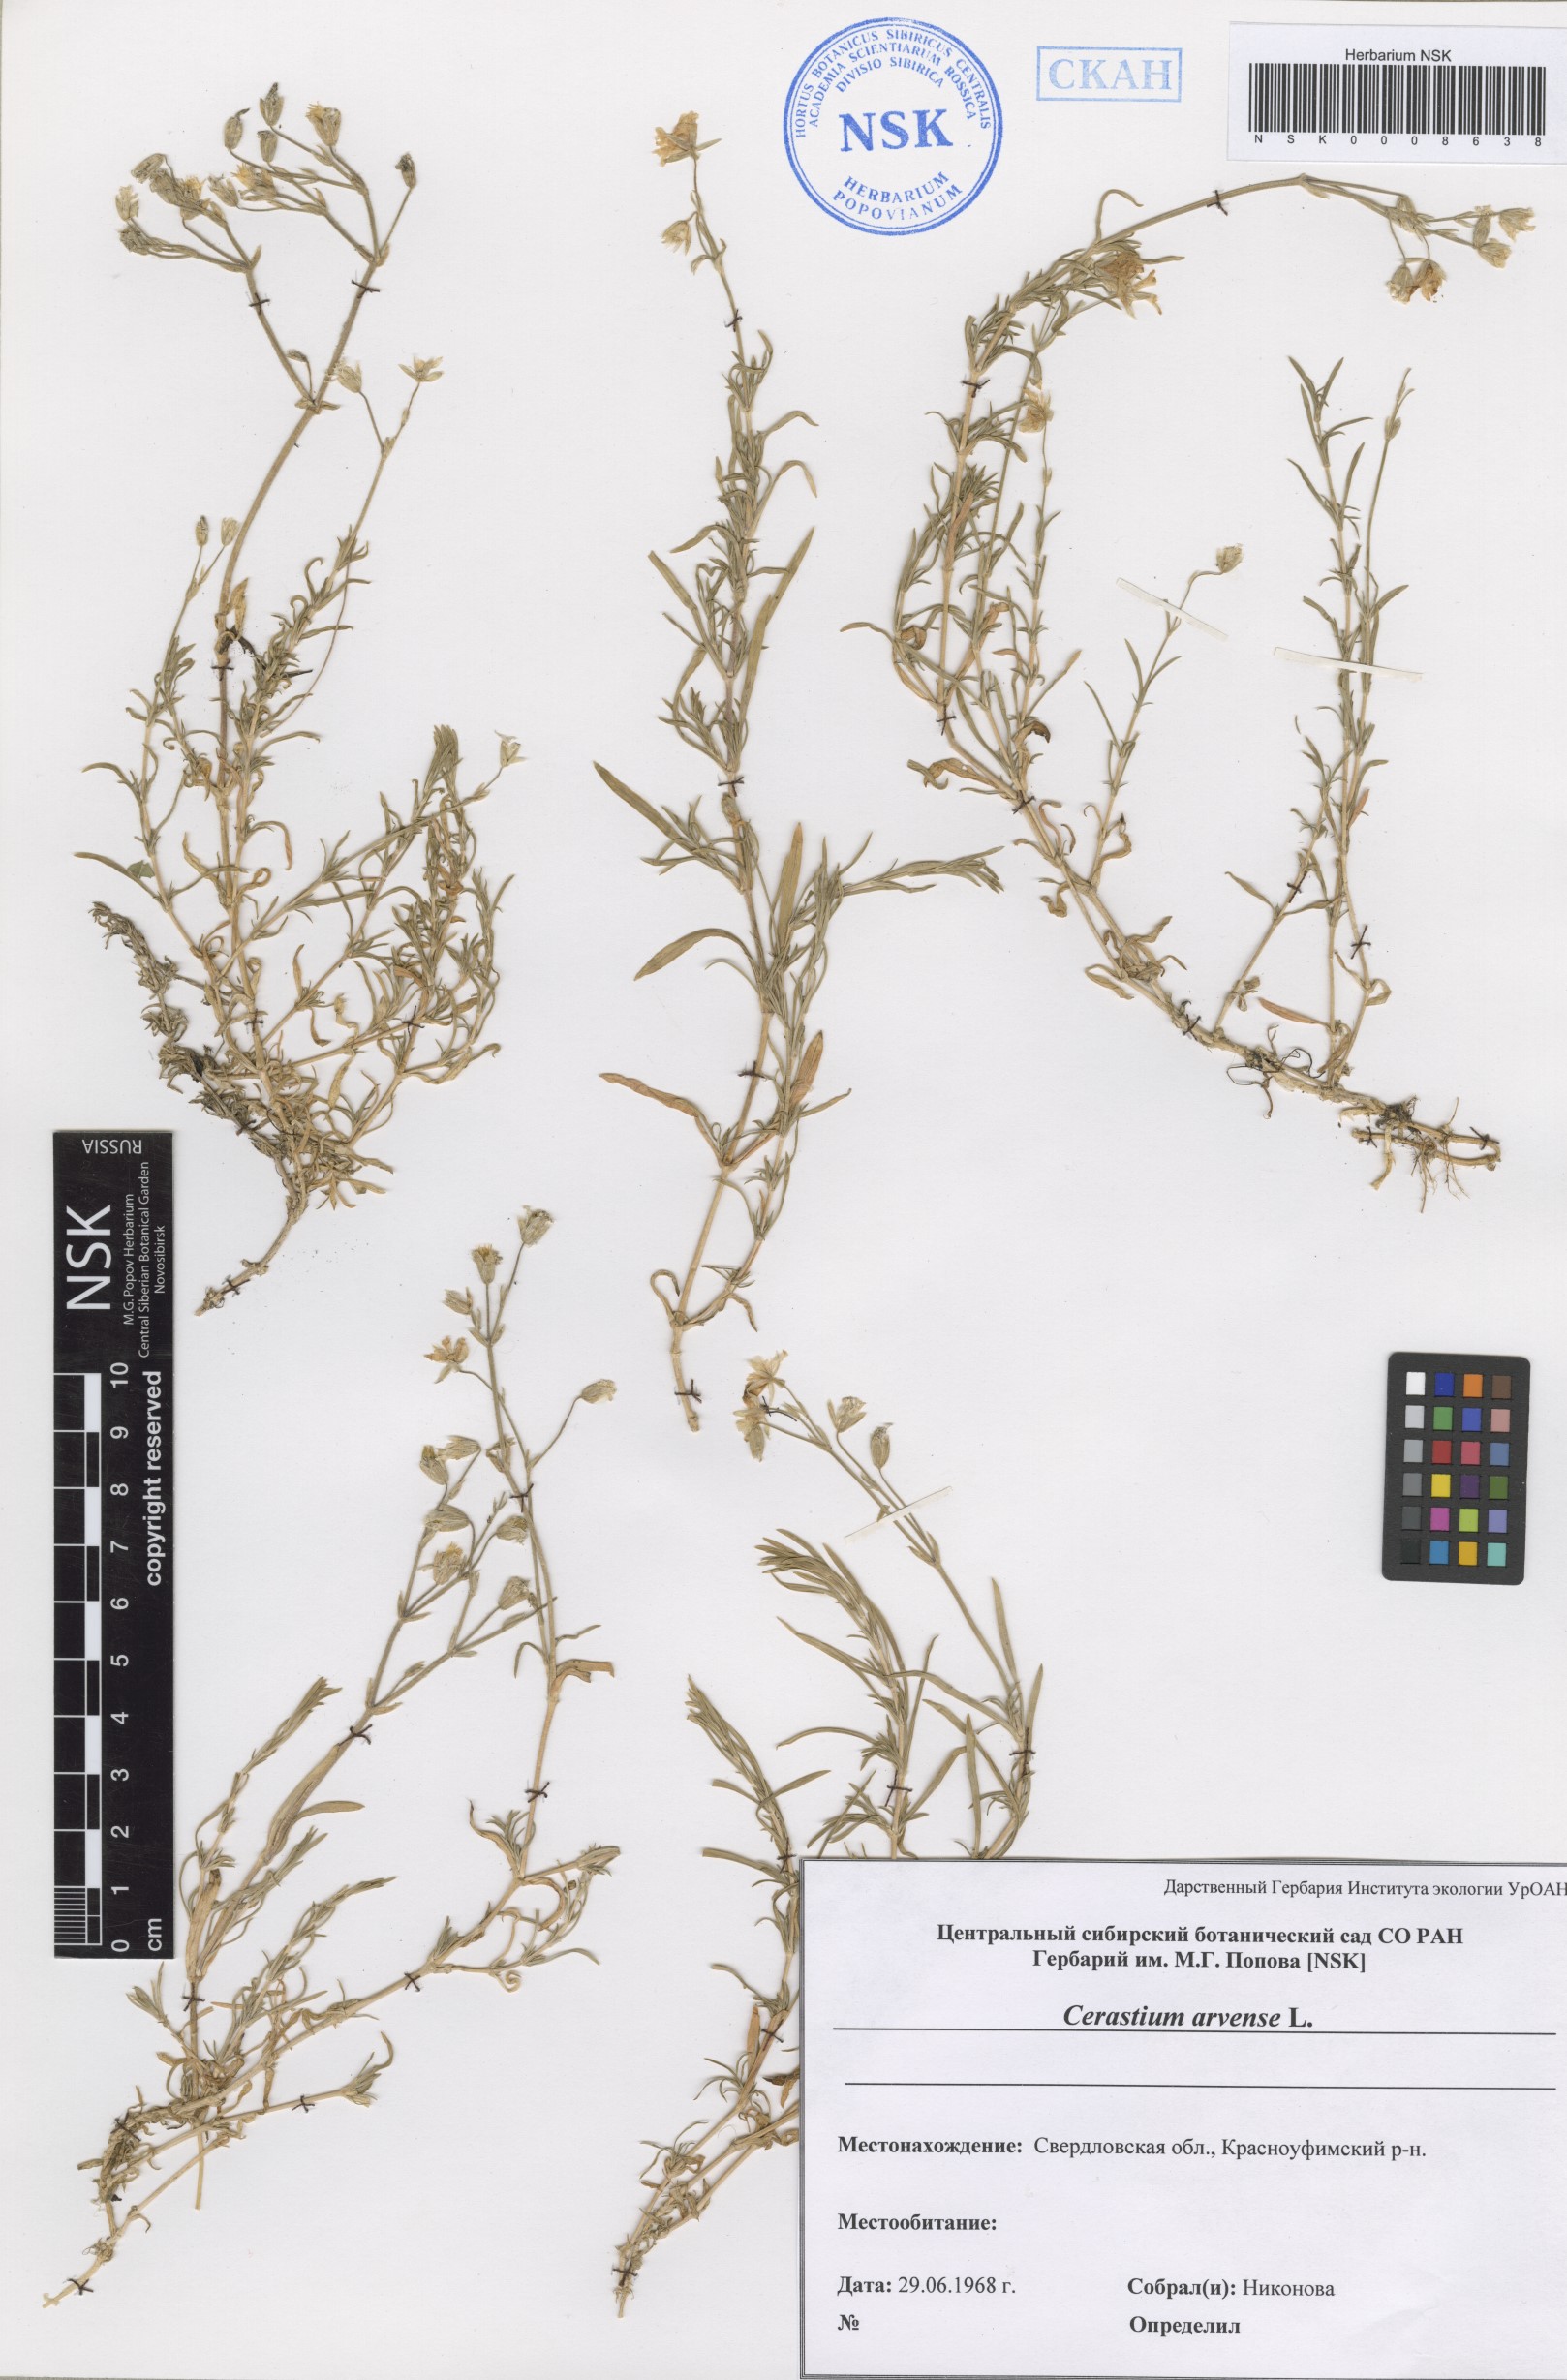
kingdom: Plantae
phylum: Tracheophyta
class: Magnoliopsida
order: Caryophyllales
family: Caryophyllaceae
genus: Cerastium
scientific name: Cerastium arvense
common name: Field mouse-ear
